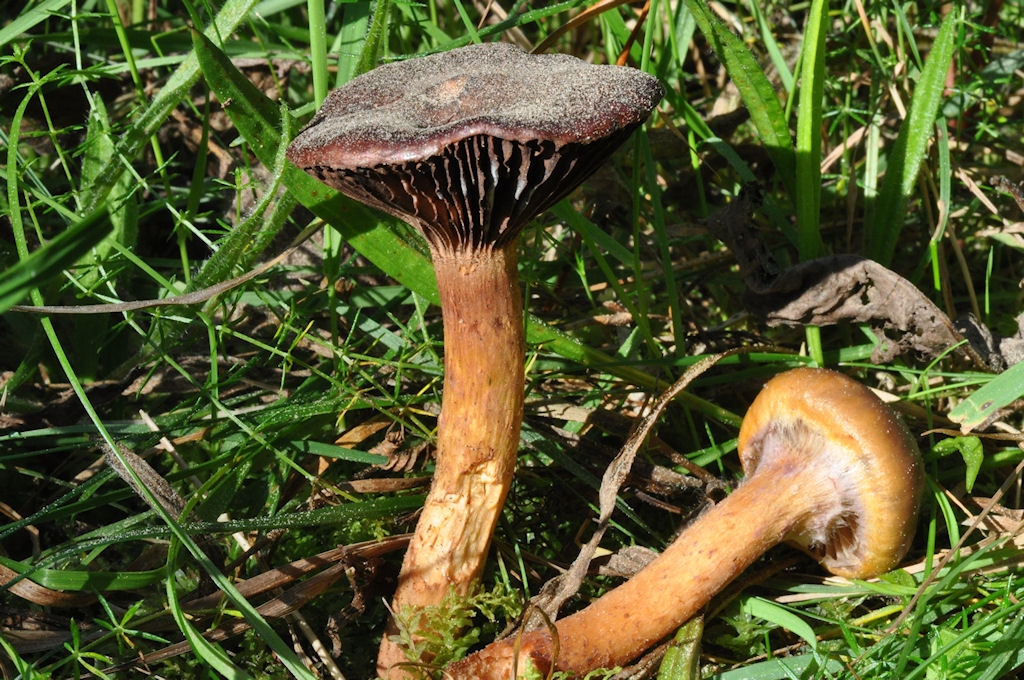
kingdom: Fungi
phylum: Basidiomycota
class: Agaricomycetes
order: Boletales
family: Gomphidiaceae
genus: Chroogomphus
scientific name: Chroogomphus rutilus
